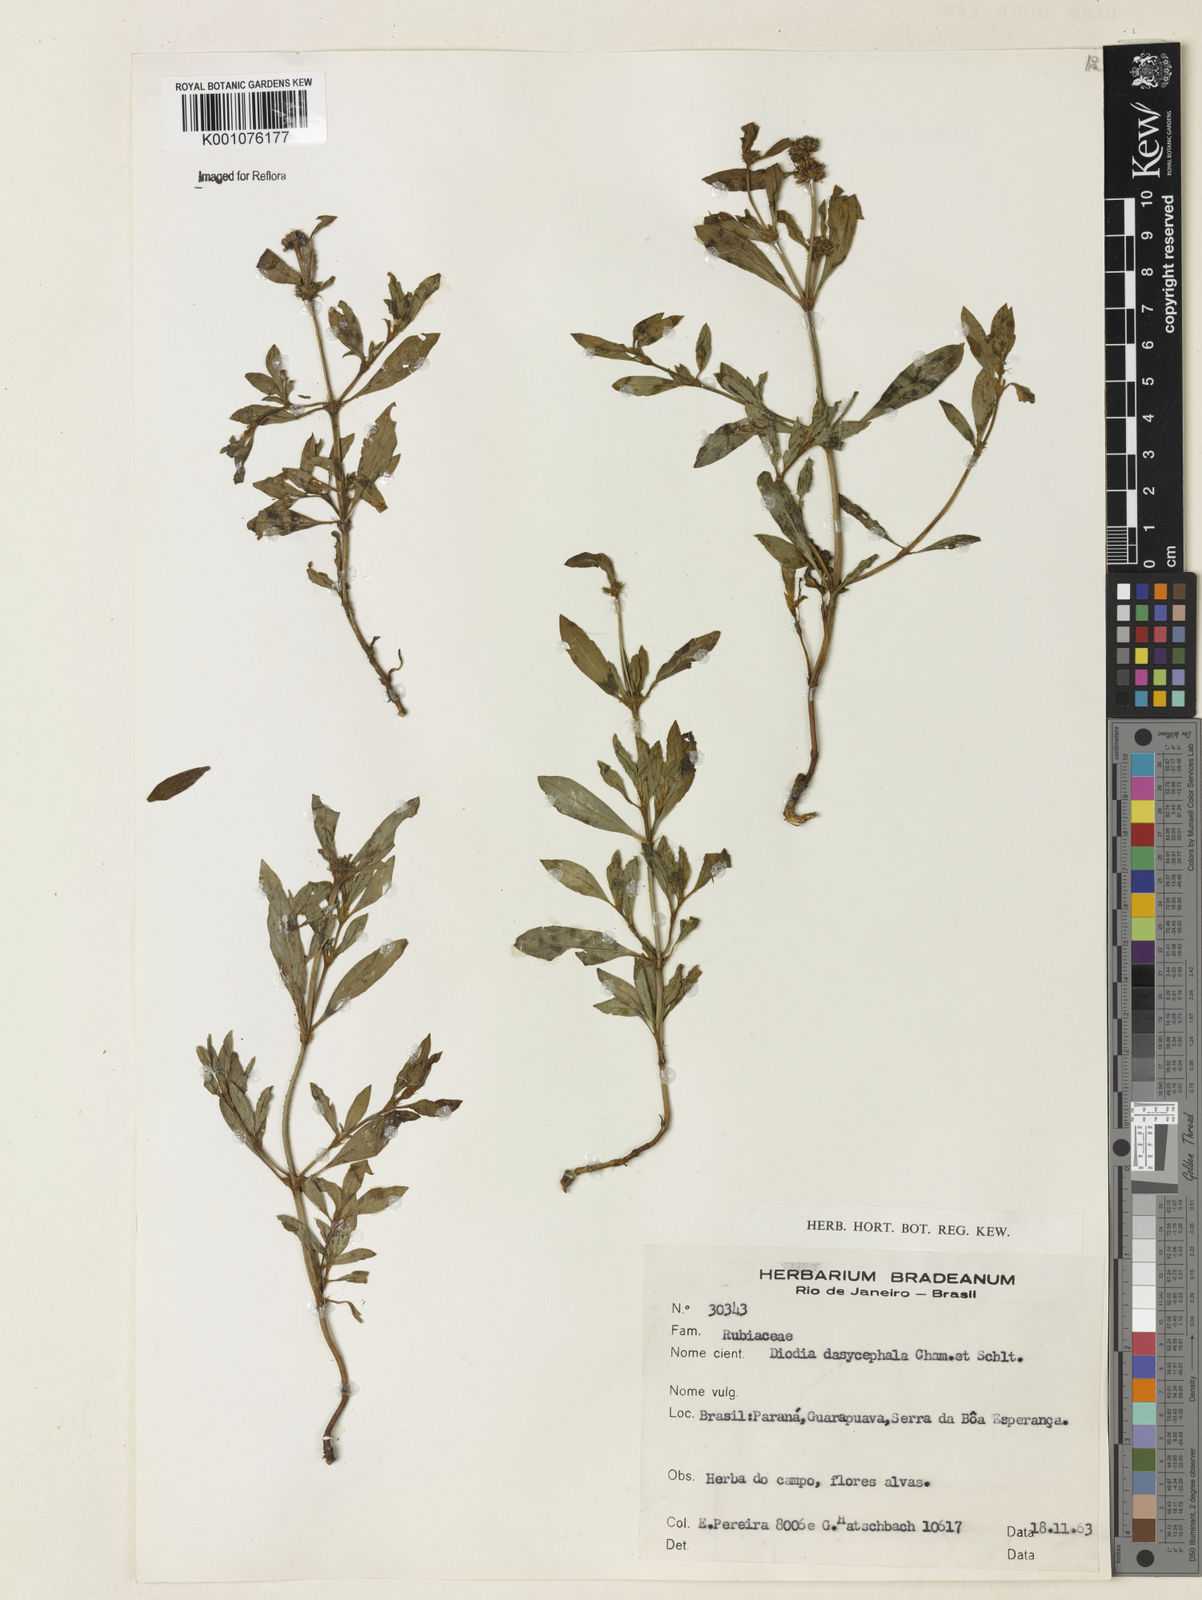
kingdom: Plantae
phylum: Tracheophyta
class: Magnoliopsida
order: Gentianales
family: Rubiaceae
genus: Spermacoce
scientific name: Spermacoce dasycephala
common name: False buttonweed
